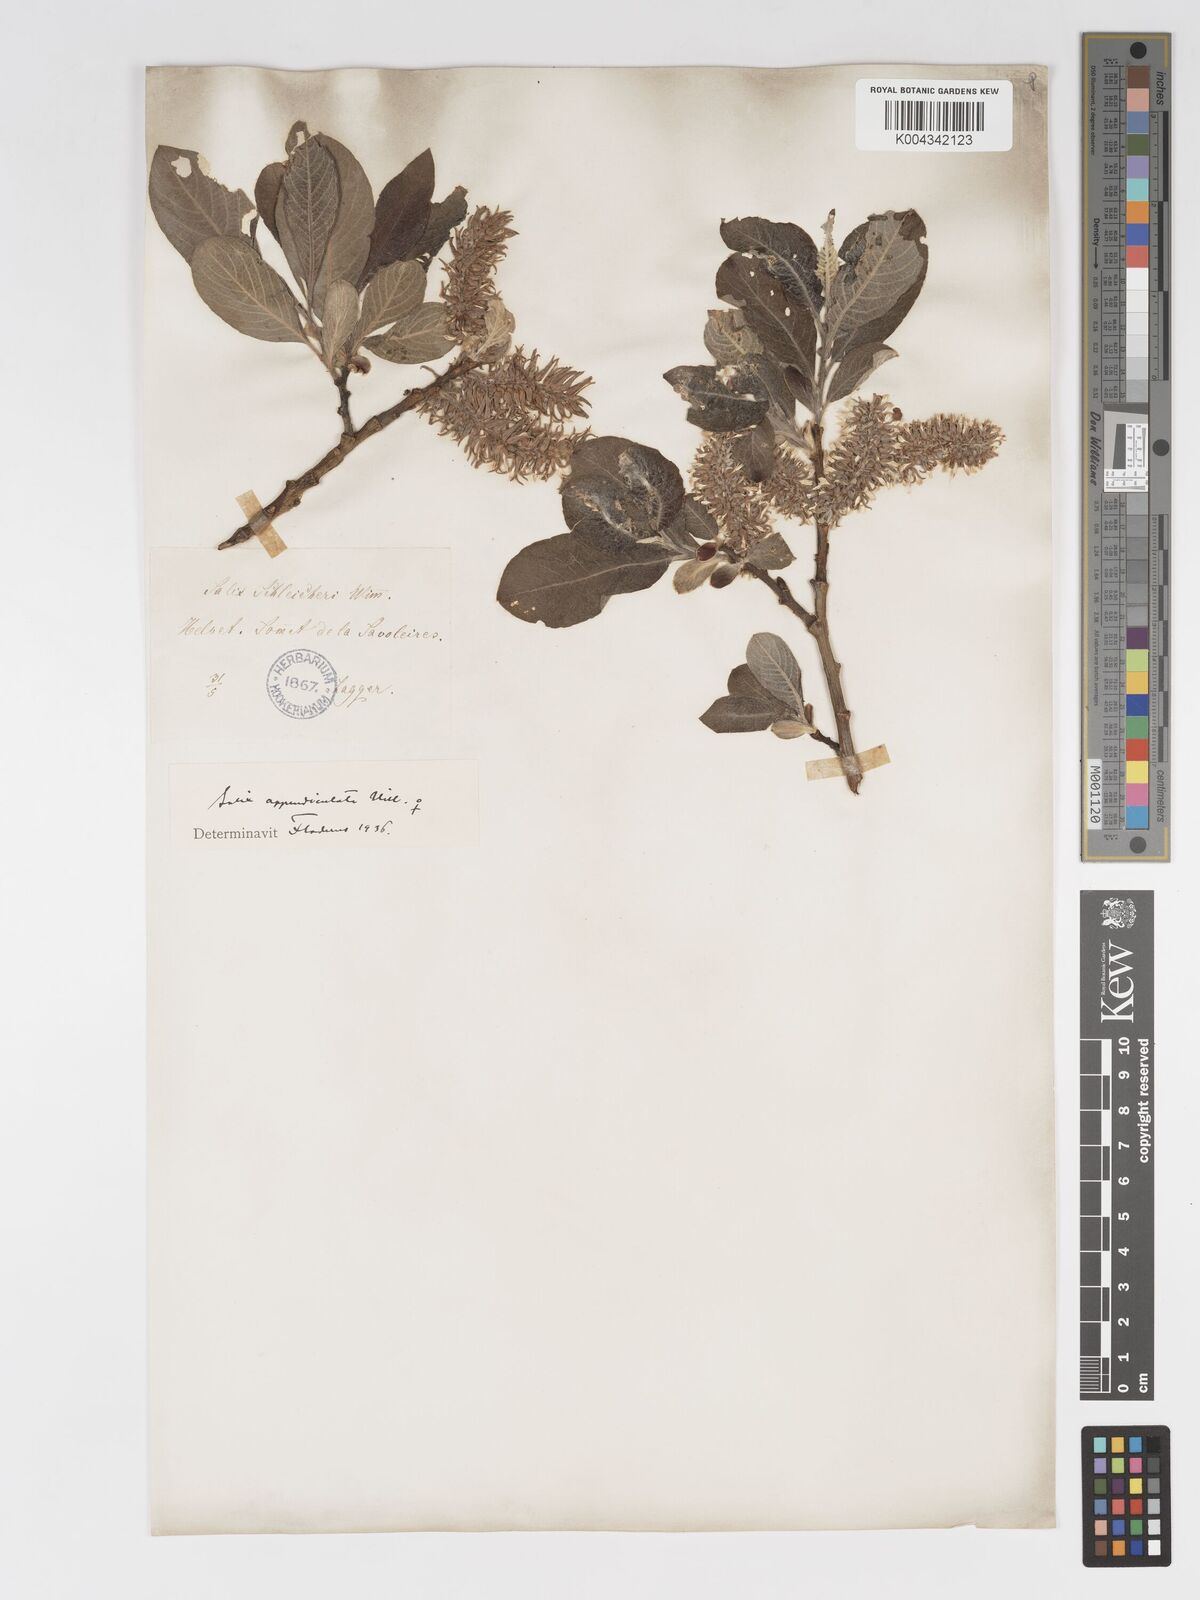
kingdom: Plantae
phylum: Tracheophyta
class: Magnoliopsida
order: Malpighiales
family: Salicaceae
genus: Salix
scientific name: Salix laggeri
